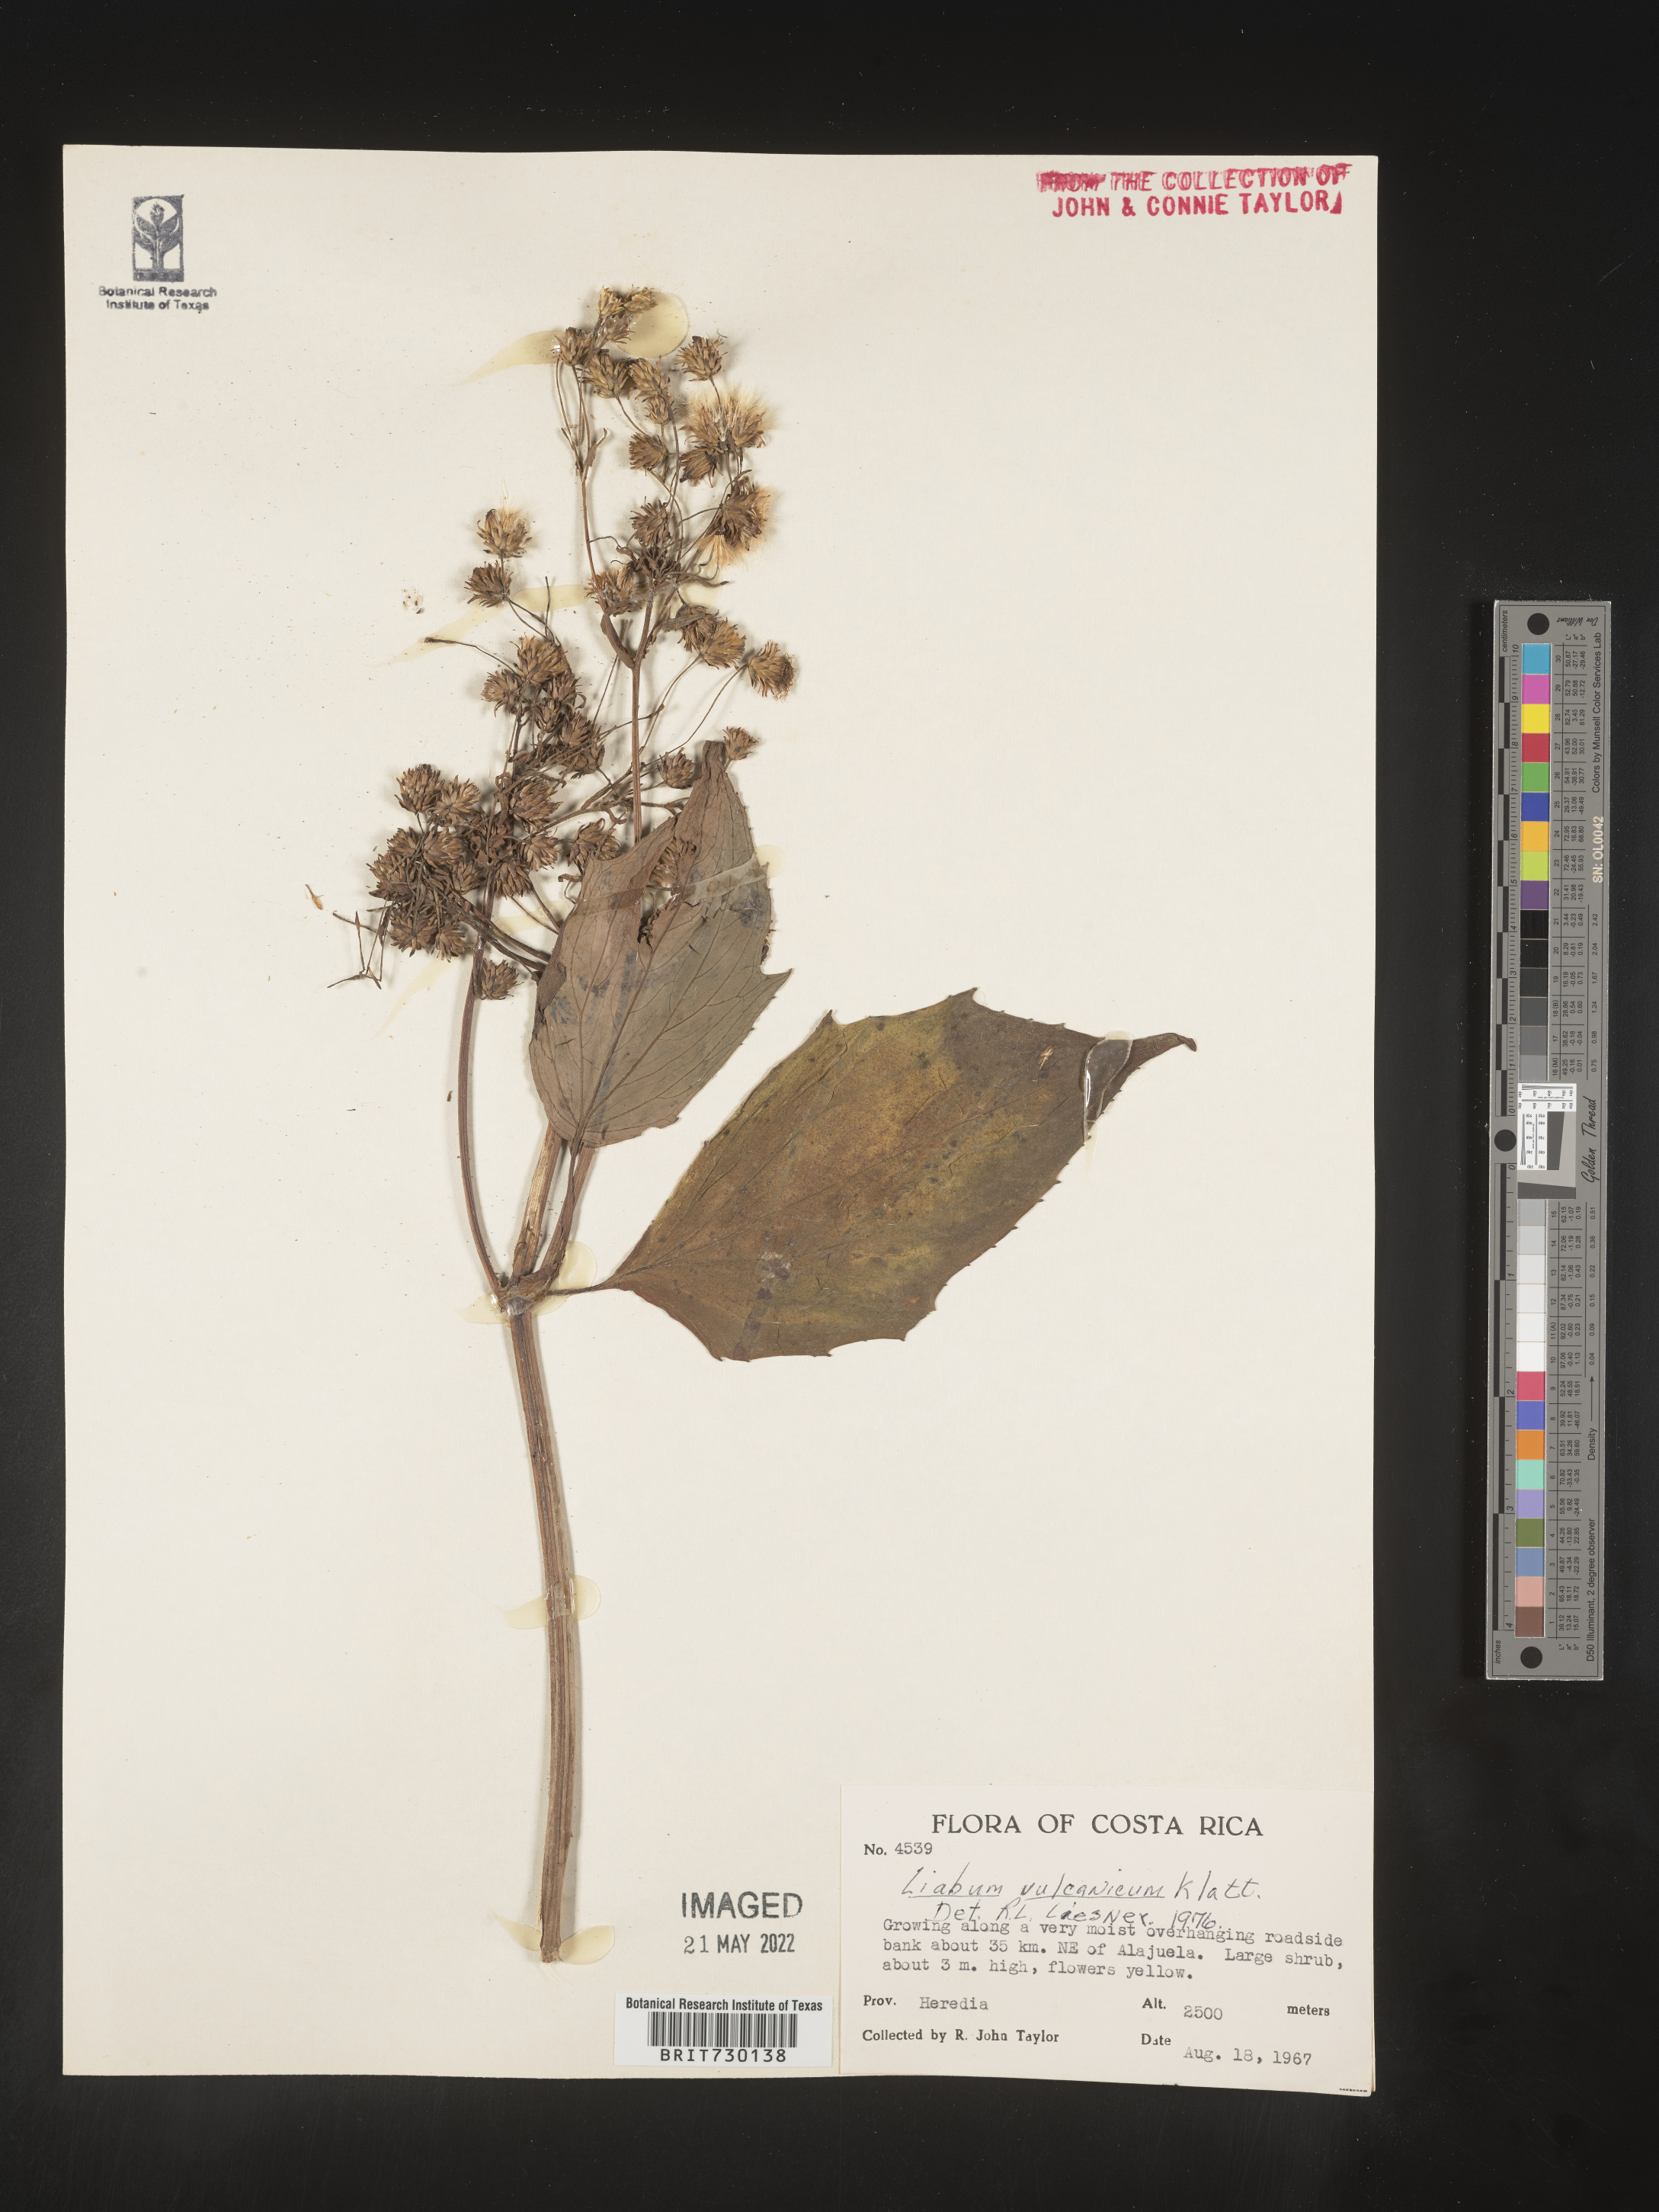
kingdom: Plantae
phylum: Tracheophyta
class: Magnoliopsida
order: Asterales
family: Asteraceae
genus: Liabum
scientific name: Liabum
